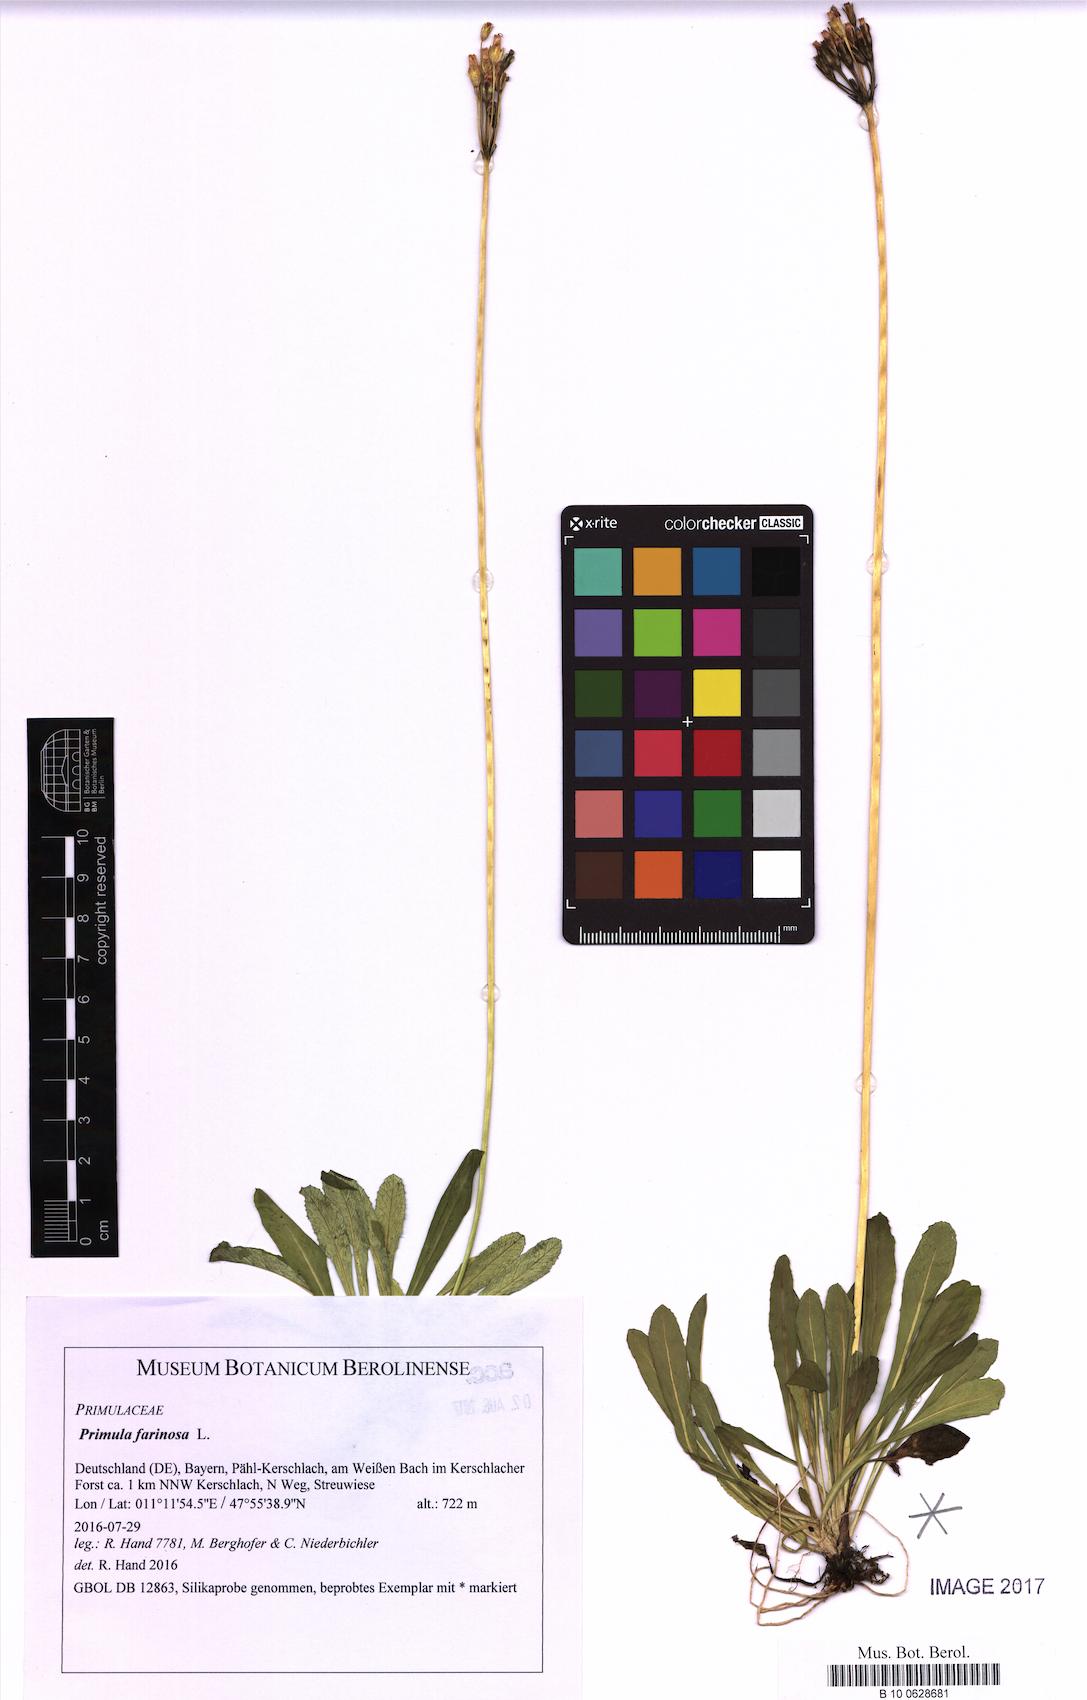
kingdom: Plantae
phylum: Tracheophyta
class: Magnoliopsida
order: Ericales
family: Primulaceae
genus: Primula
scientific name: Primula farinosa
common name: Bird's-eye primrose
